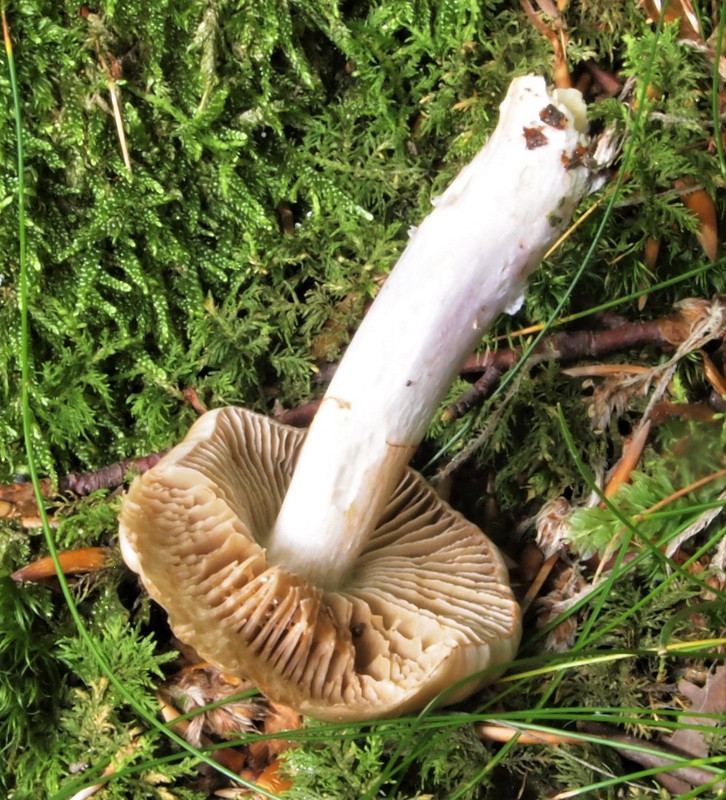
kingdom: Fungi
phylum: Basidiomycota
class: Agaricomycetes
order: Agaricales
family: Cortinariaceae
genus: Cortinarius
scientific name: Cortinarius elatior
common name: høj slørhat
